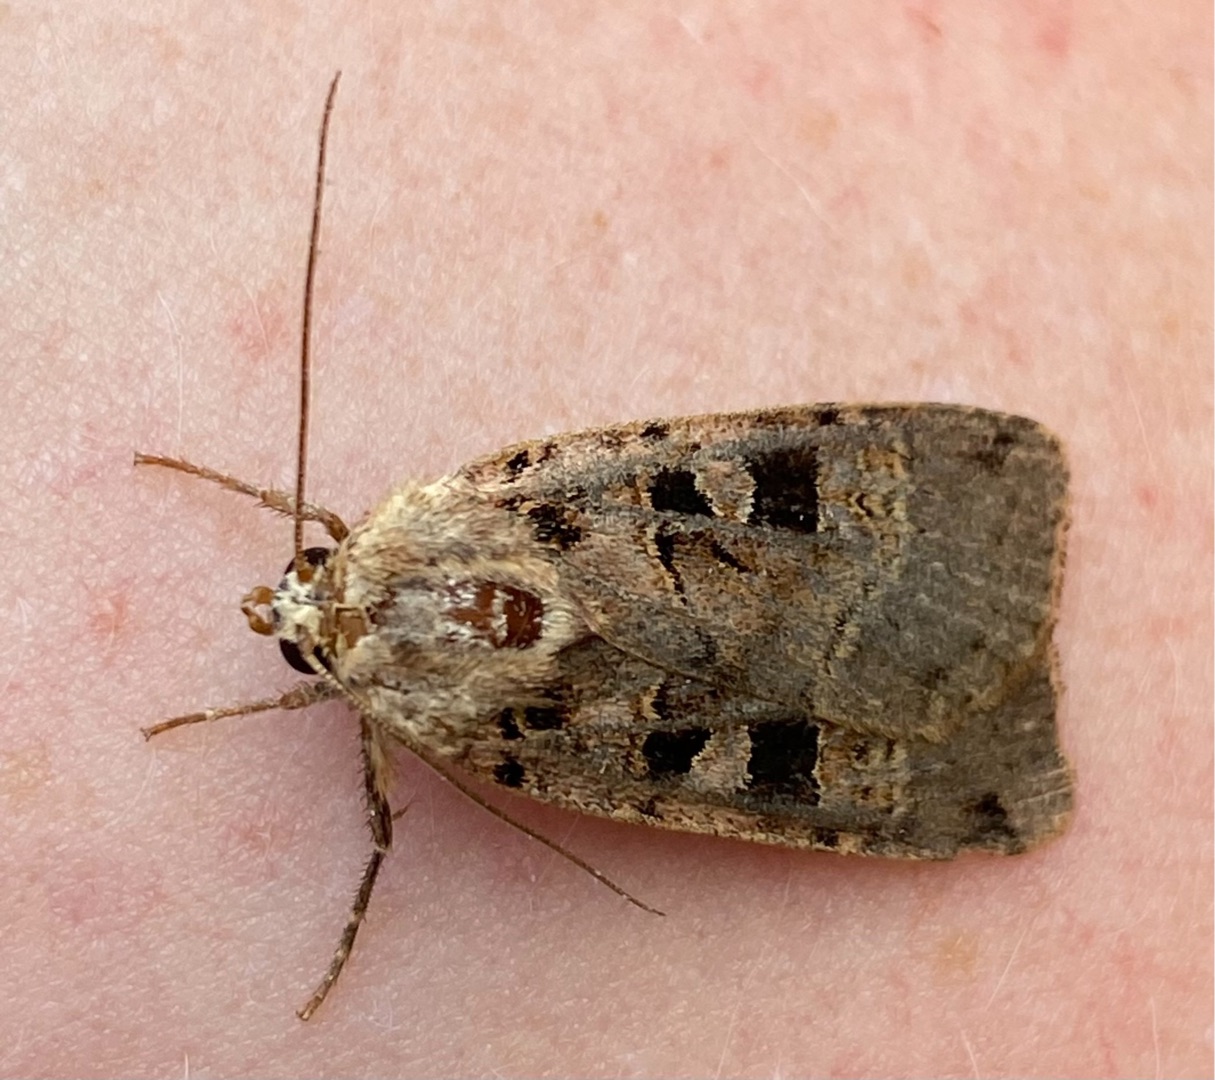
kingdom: Animalia
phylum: Arthropoda
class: Insecta
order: Lepidoptera
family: Noctuidae
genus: Xestia
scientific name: Xestia triangulum
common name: Sortplettet skovugle
